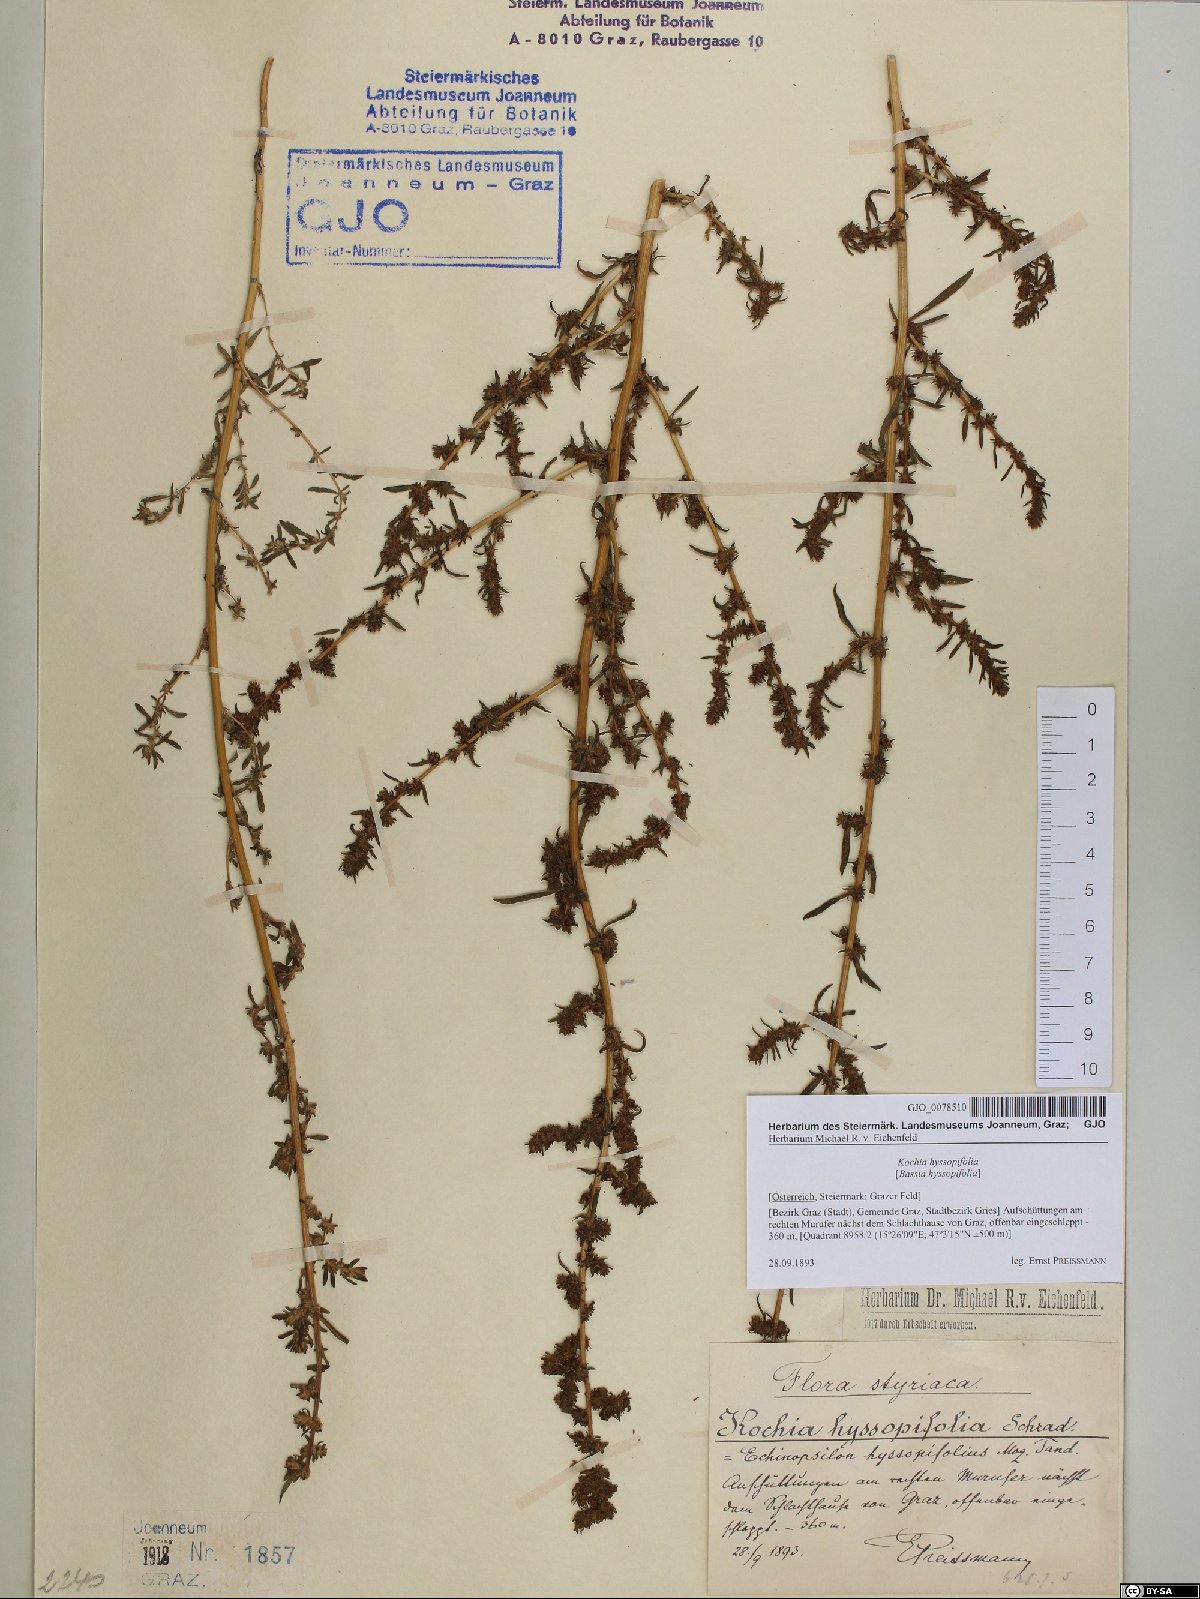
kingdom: Plantae
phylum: Tracheophyta
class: Magnoliopsida
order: Caryophyllales
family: Amaranthaceae
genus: Bassia
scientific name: Bassia hyssopifolia
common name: Fivehorn smotherweed
